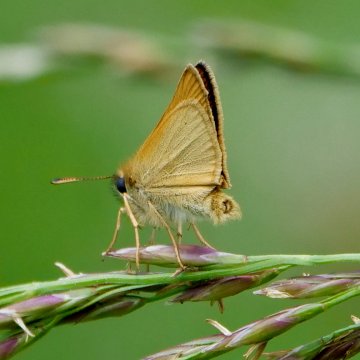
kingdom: Animalia
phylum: Arthropoda
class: Insecta
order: Lepidoptera
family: Hesperiidae
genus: Thymelicus
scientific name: Thymelicus lineola
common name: European Skipper
